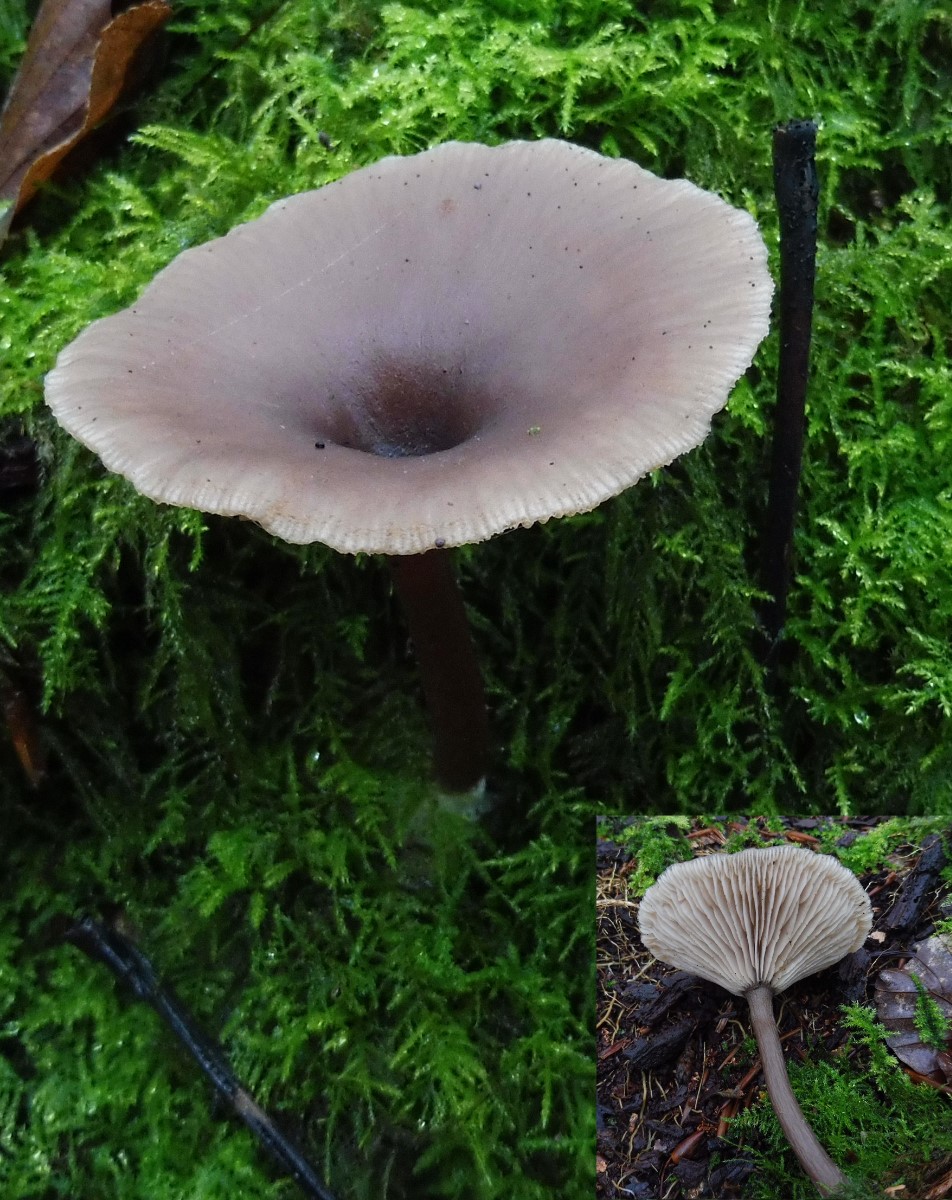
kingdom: Fungi
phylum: Basidiomycota
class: Agaricomycetes
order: Agaricales
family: Pseudoclitocybaceae
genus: Pseudoclitocybe
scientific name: Pseudoclitocybe cyathiformis
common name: almindelig bægertragthat
